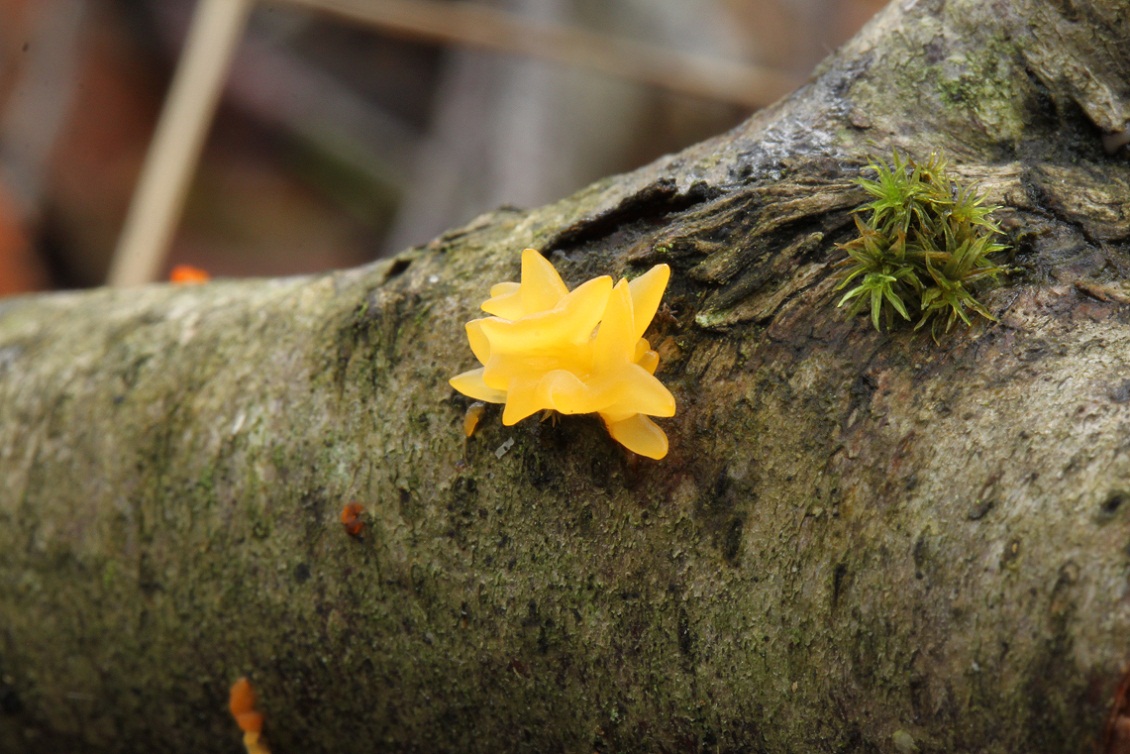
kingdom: Fungi
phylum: Basidiomycota
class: Dacrymycetes
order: Dacrymycetales
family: Dacrymycetaceae
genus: Calocera
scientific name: Calocera cornea
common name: liden guldgaffel
